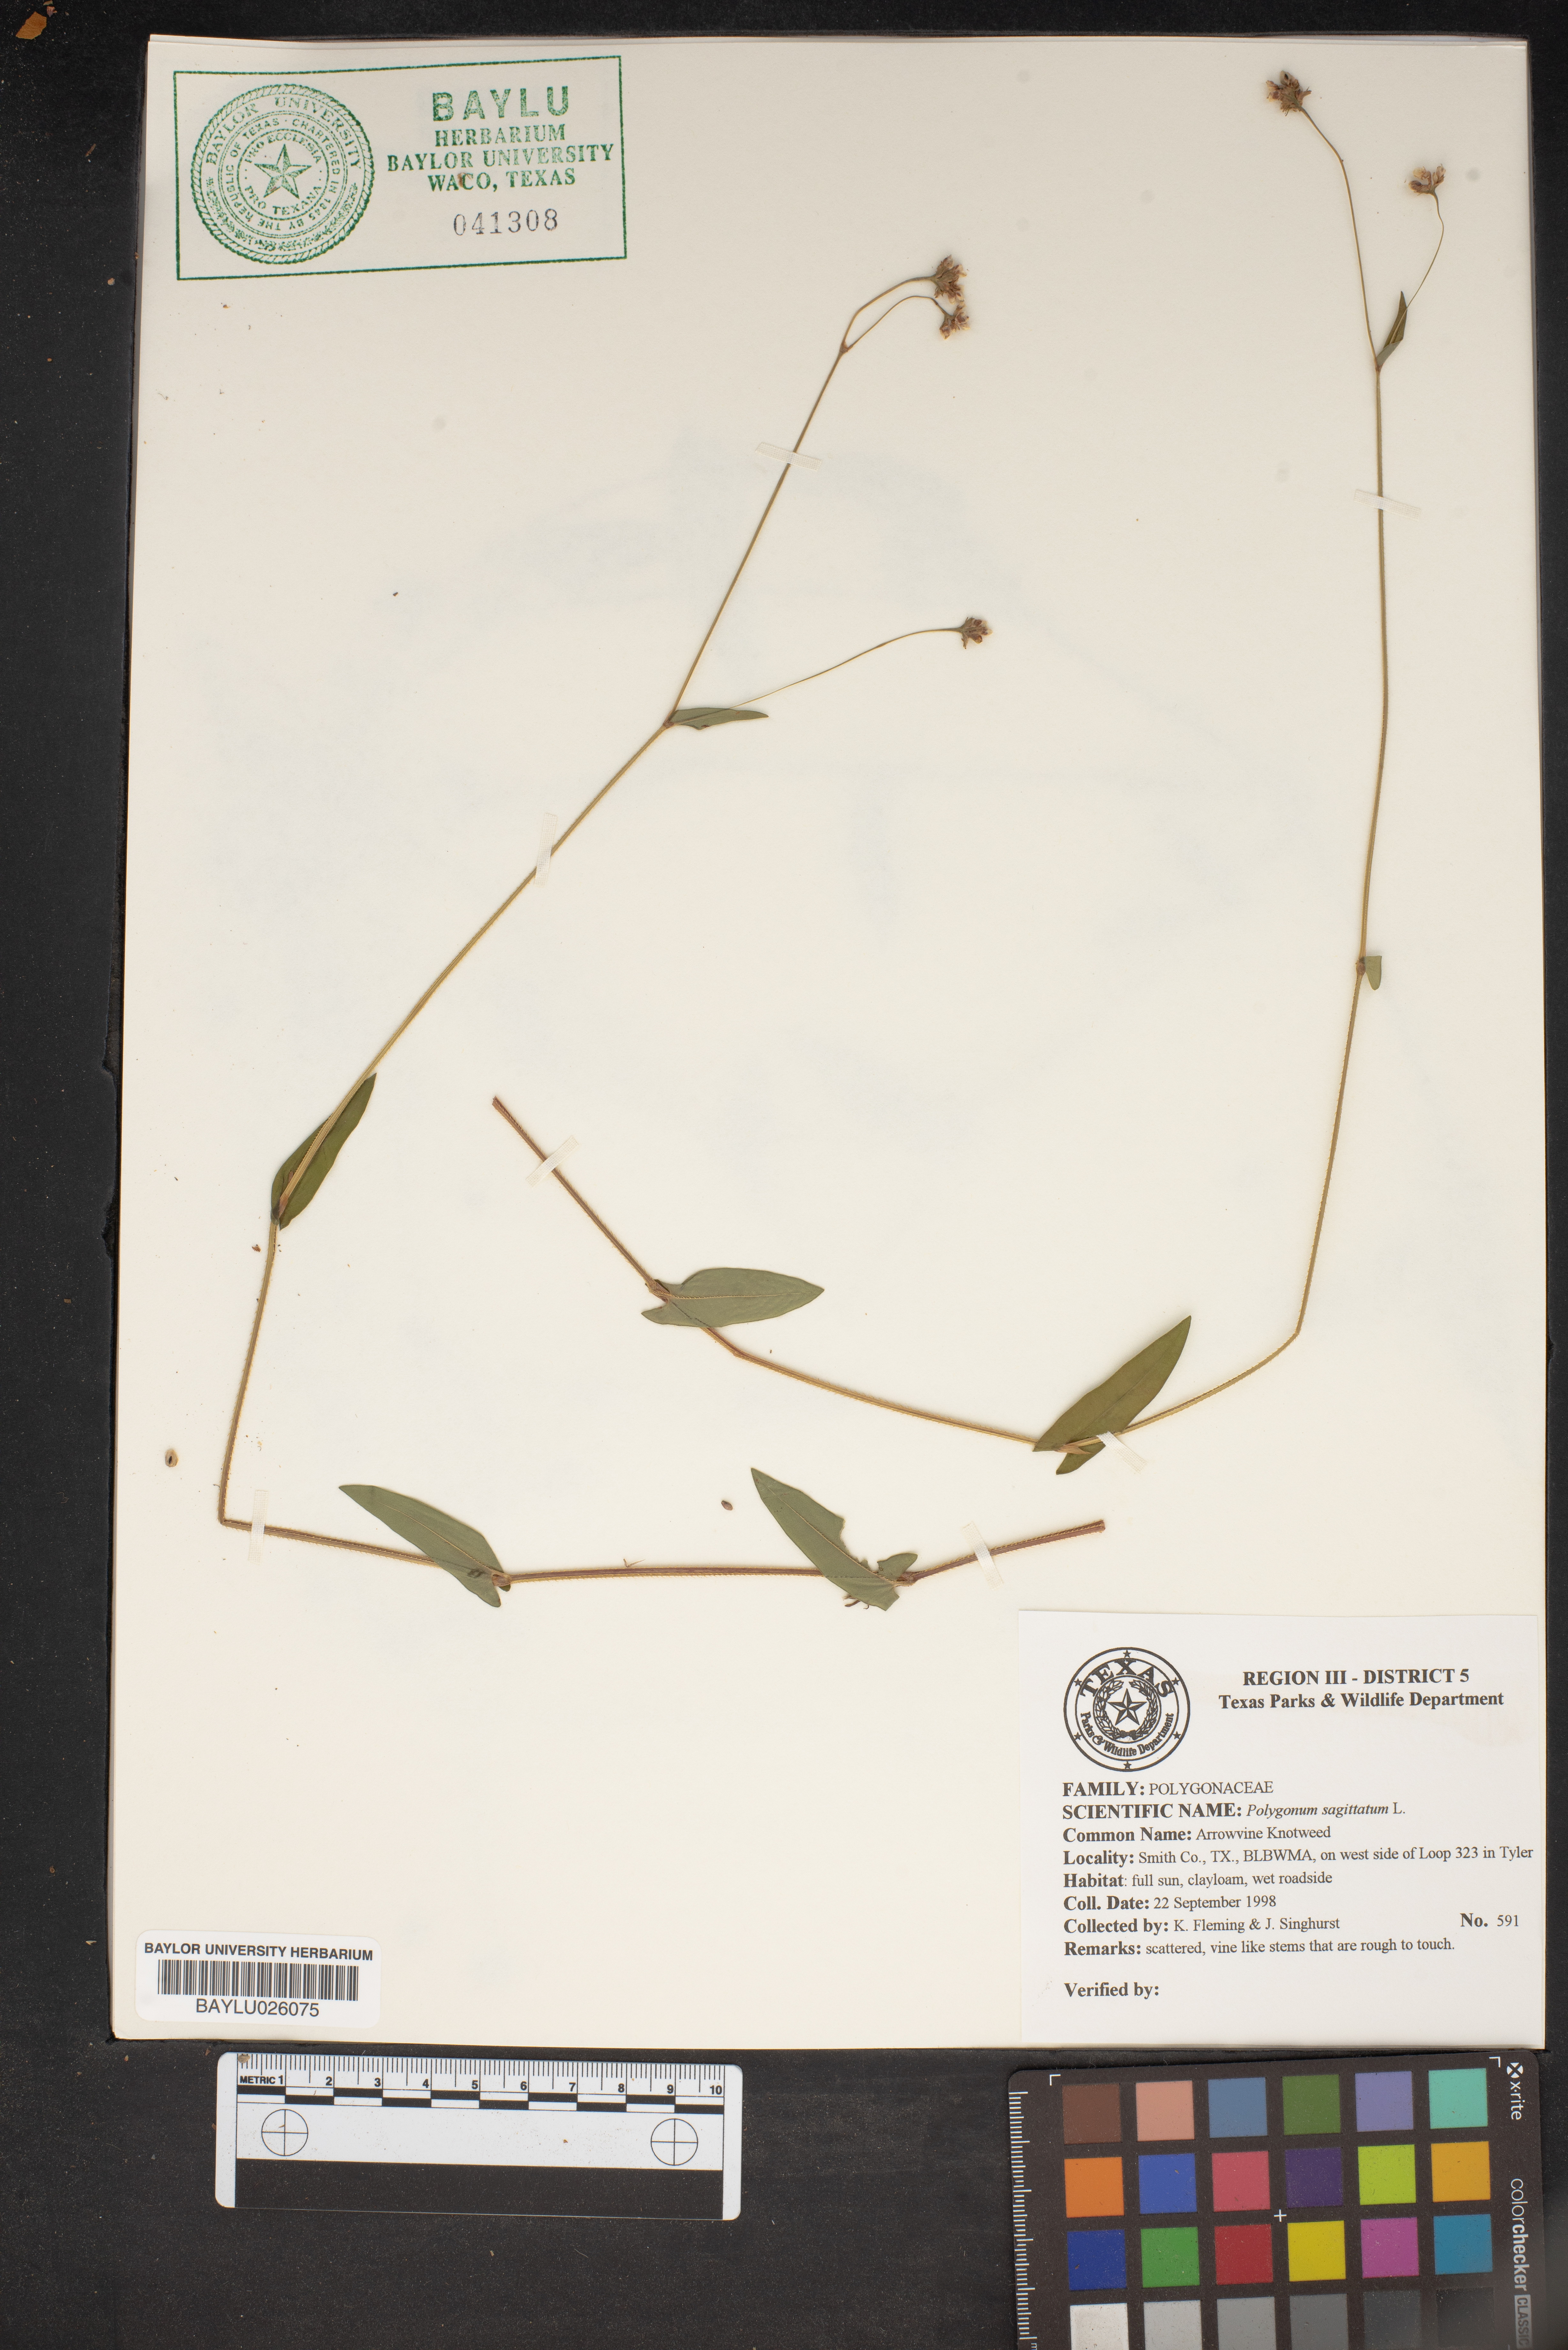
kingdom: Plantae
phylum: Tracheophyta
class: Magnoliopsida
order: Caryophyllales
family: Polygonaceae
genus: Persicaria
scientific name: Persicaria sagittata
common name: American tearthumb
